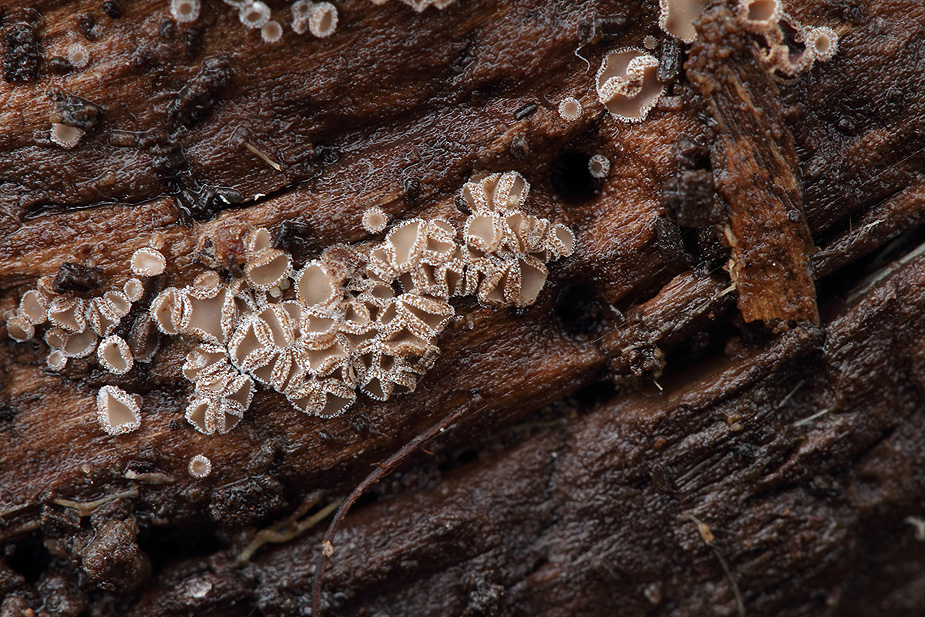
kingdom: Fungi
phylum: Ascomycota
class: Leotiomycetes
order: Helotiales
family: Solenopeziaceae
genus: Lasiobelonium
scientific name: Lasiobelonium variegatum
